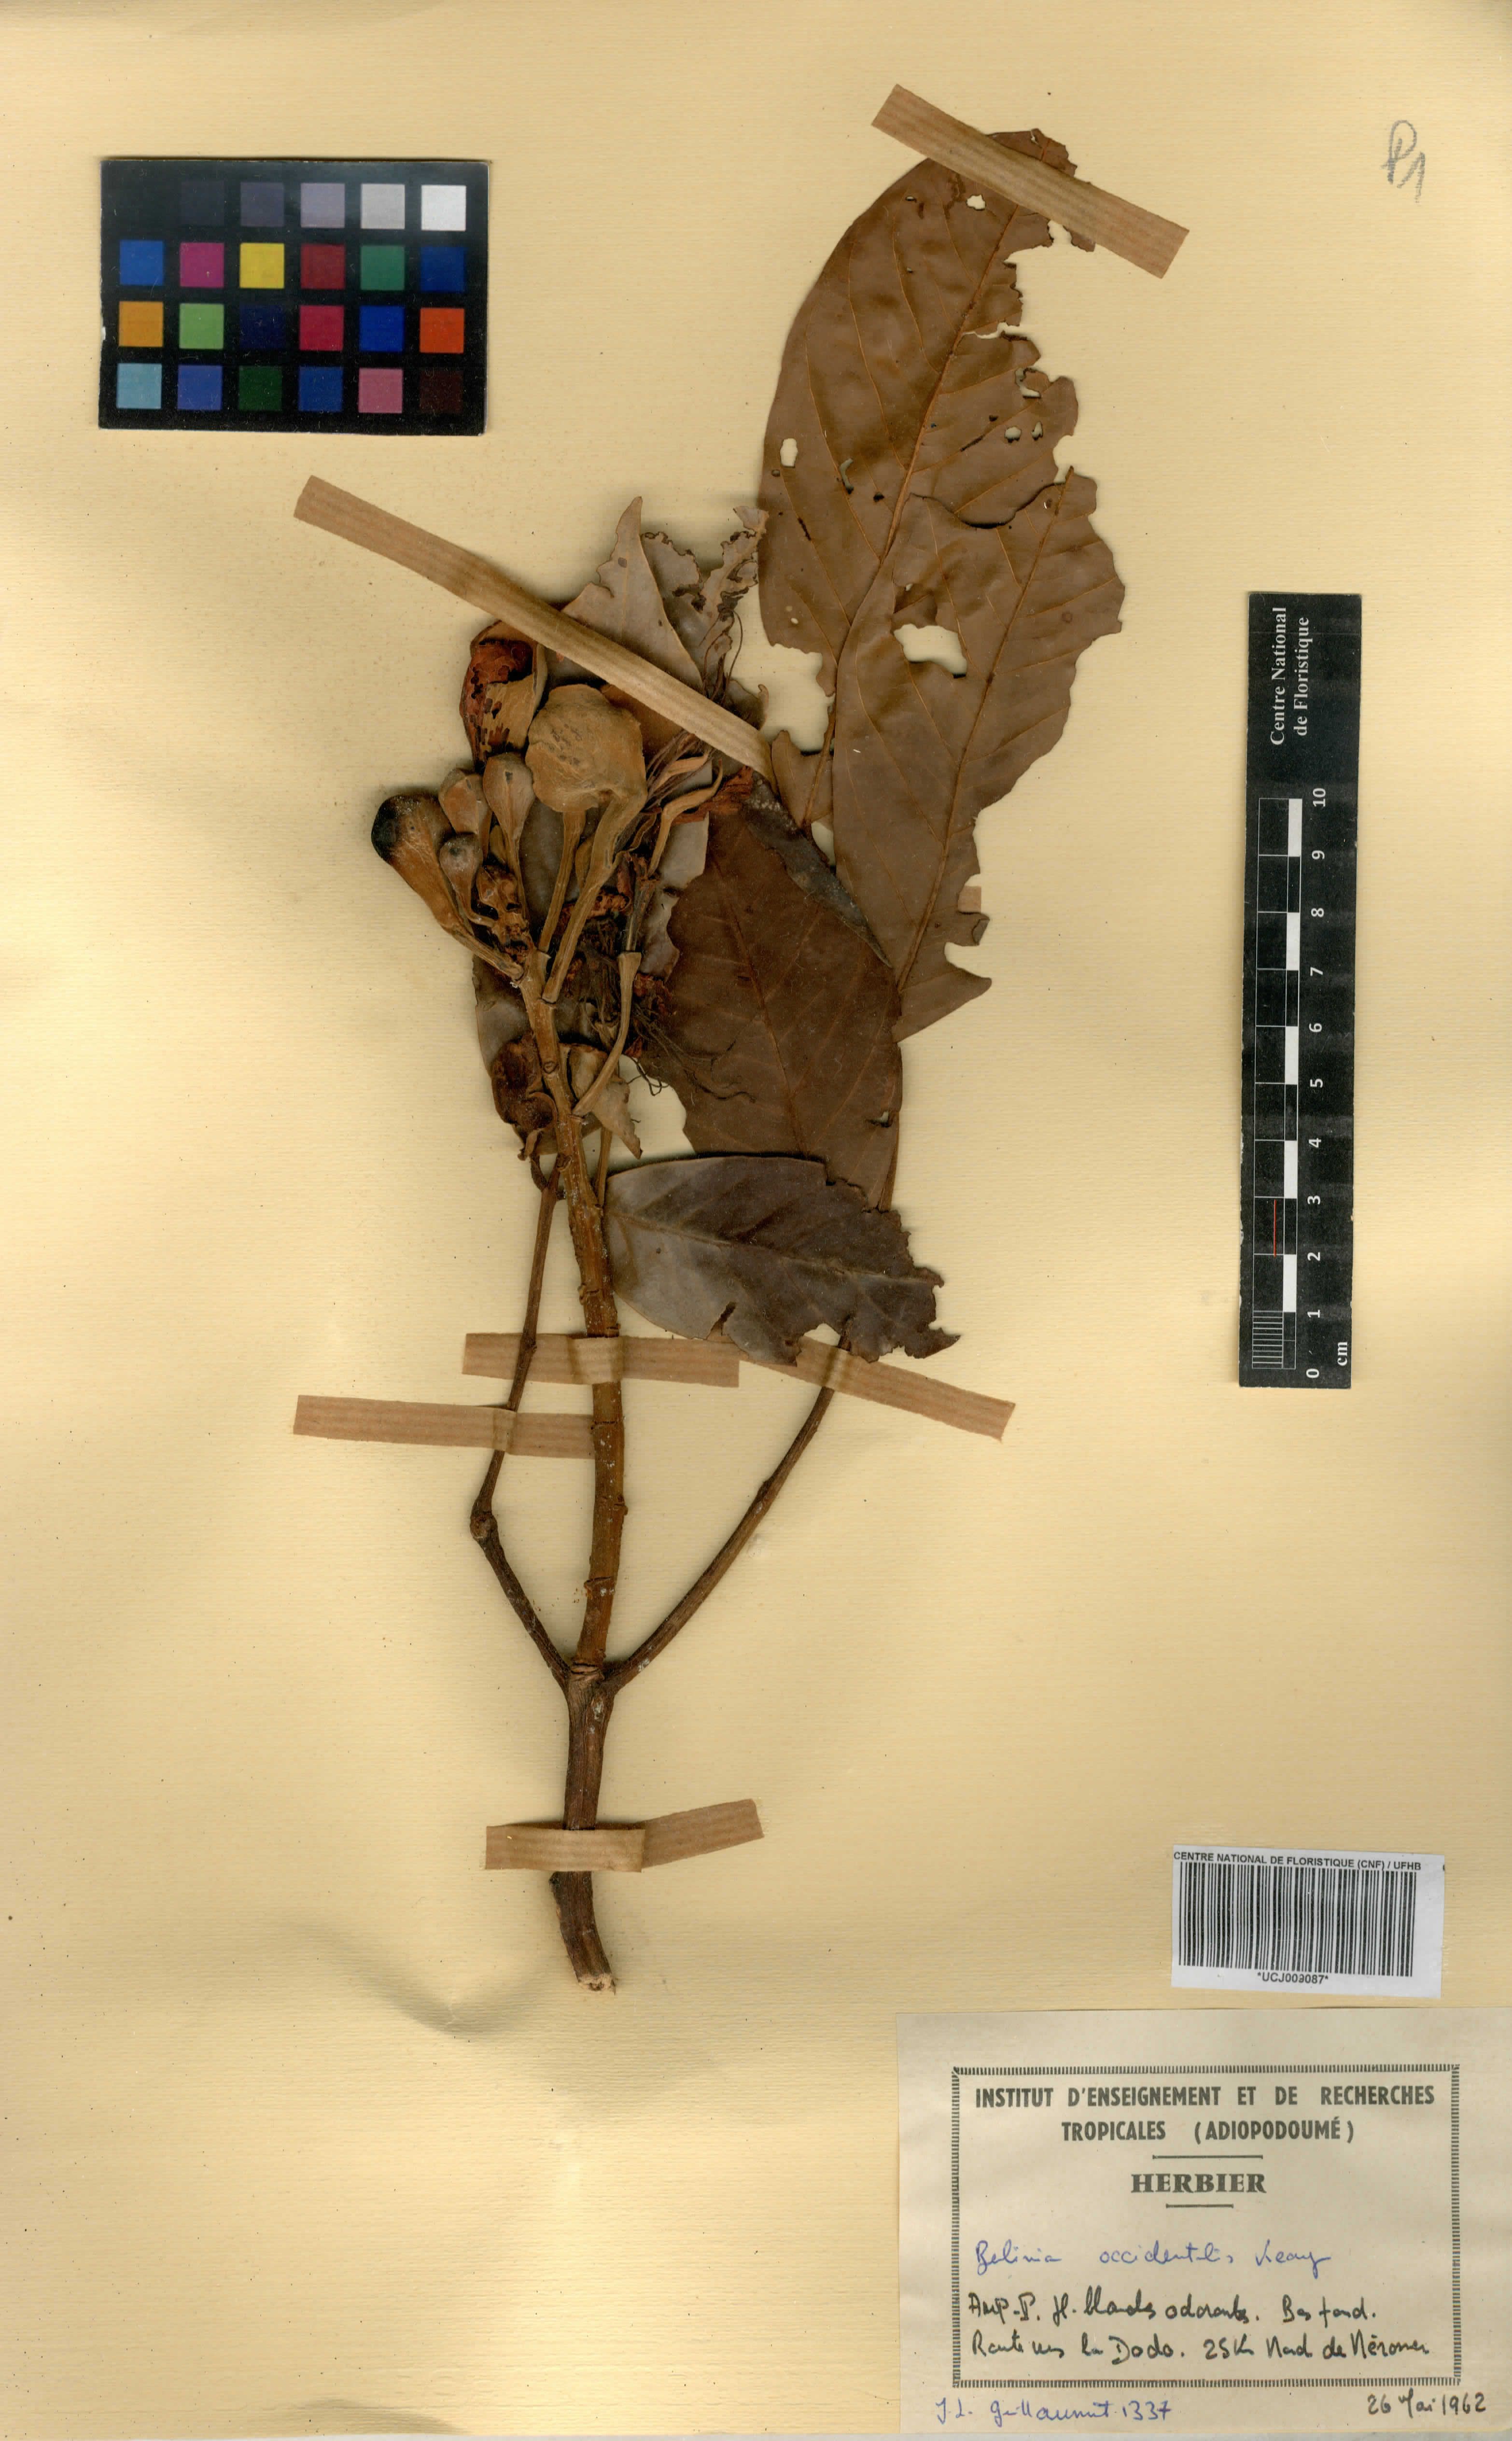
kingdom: Plantae
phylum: Tracheophyta
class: Magnoliopsida
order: Fabales
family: Fabaceae
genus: Berlinia
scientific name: Berlinia occidentalis
